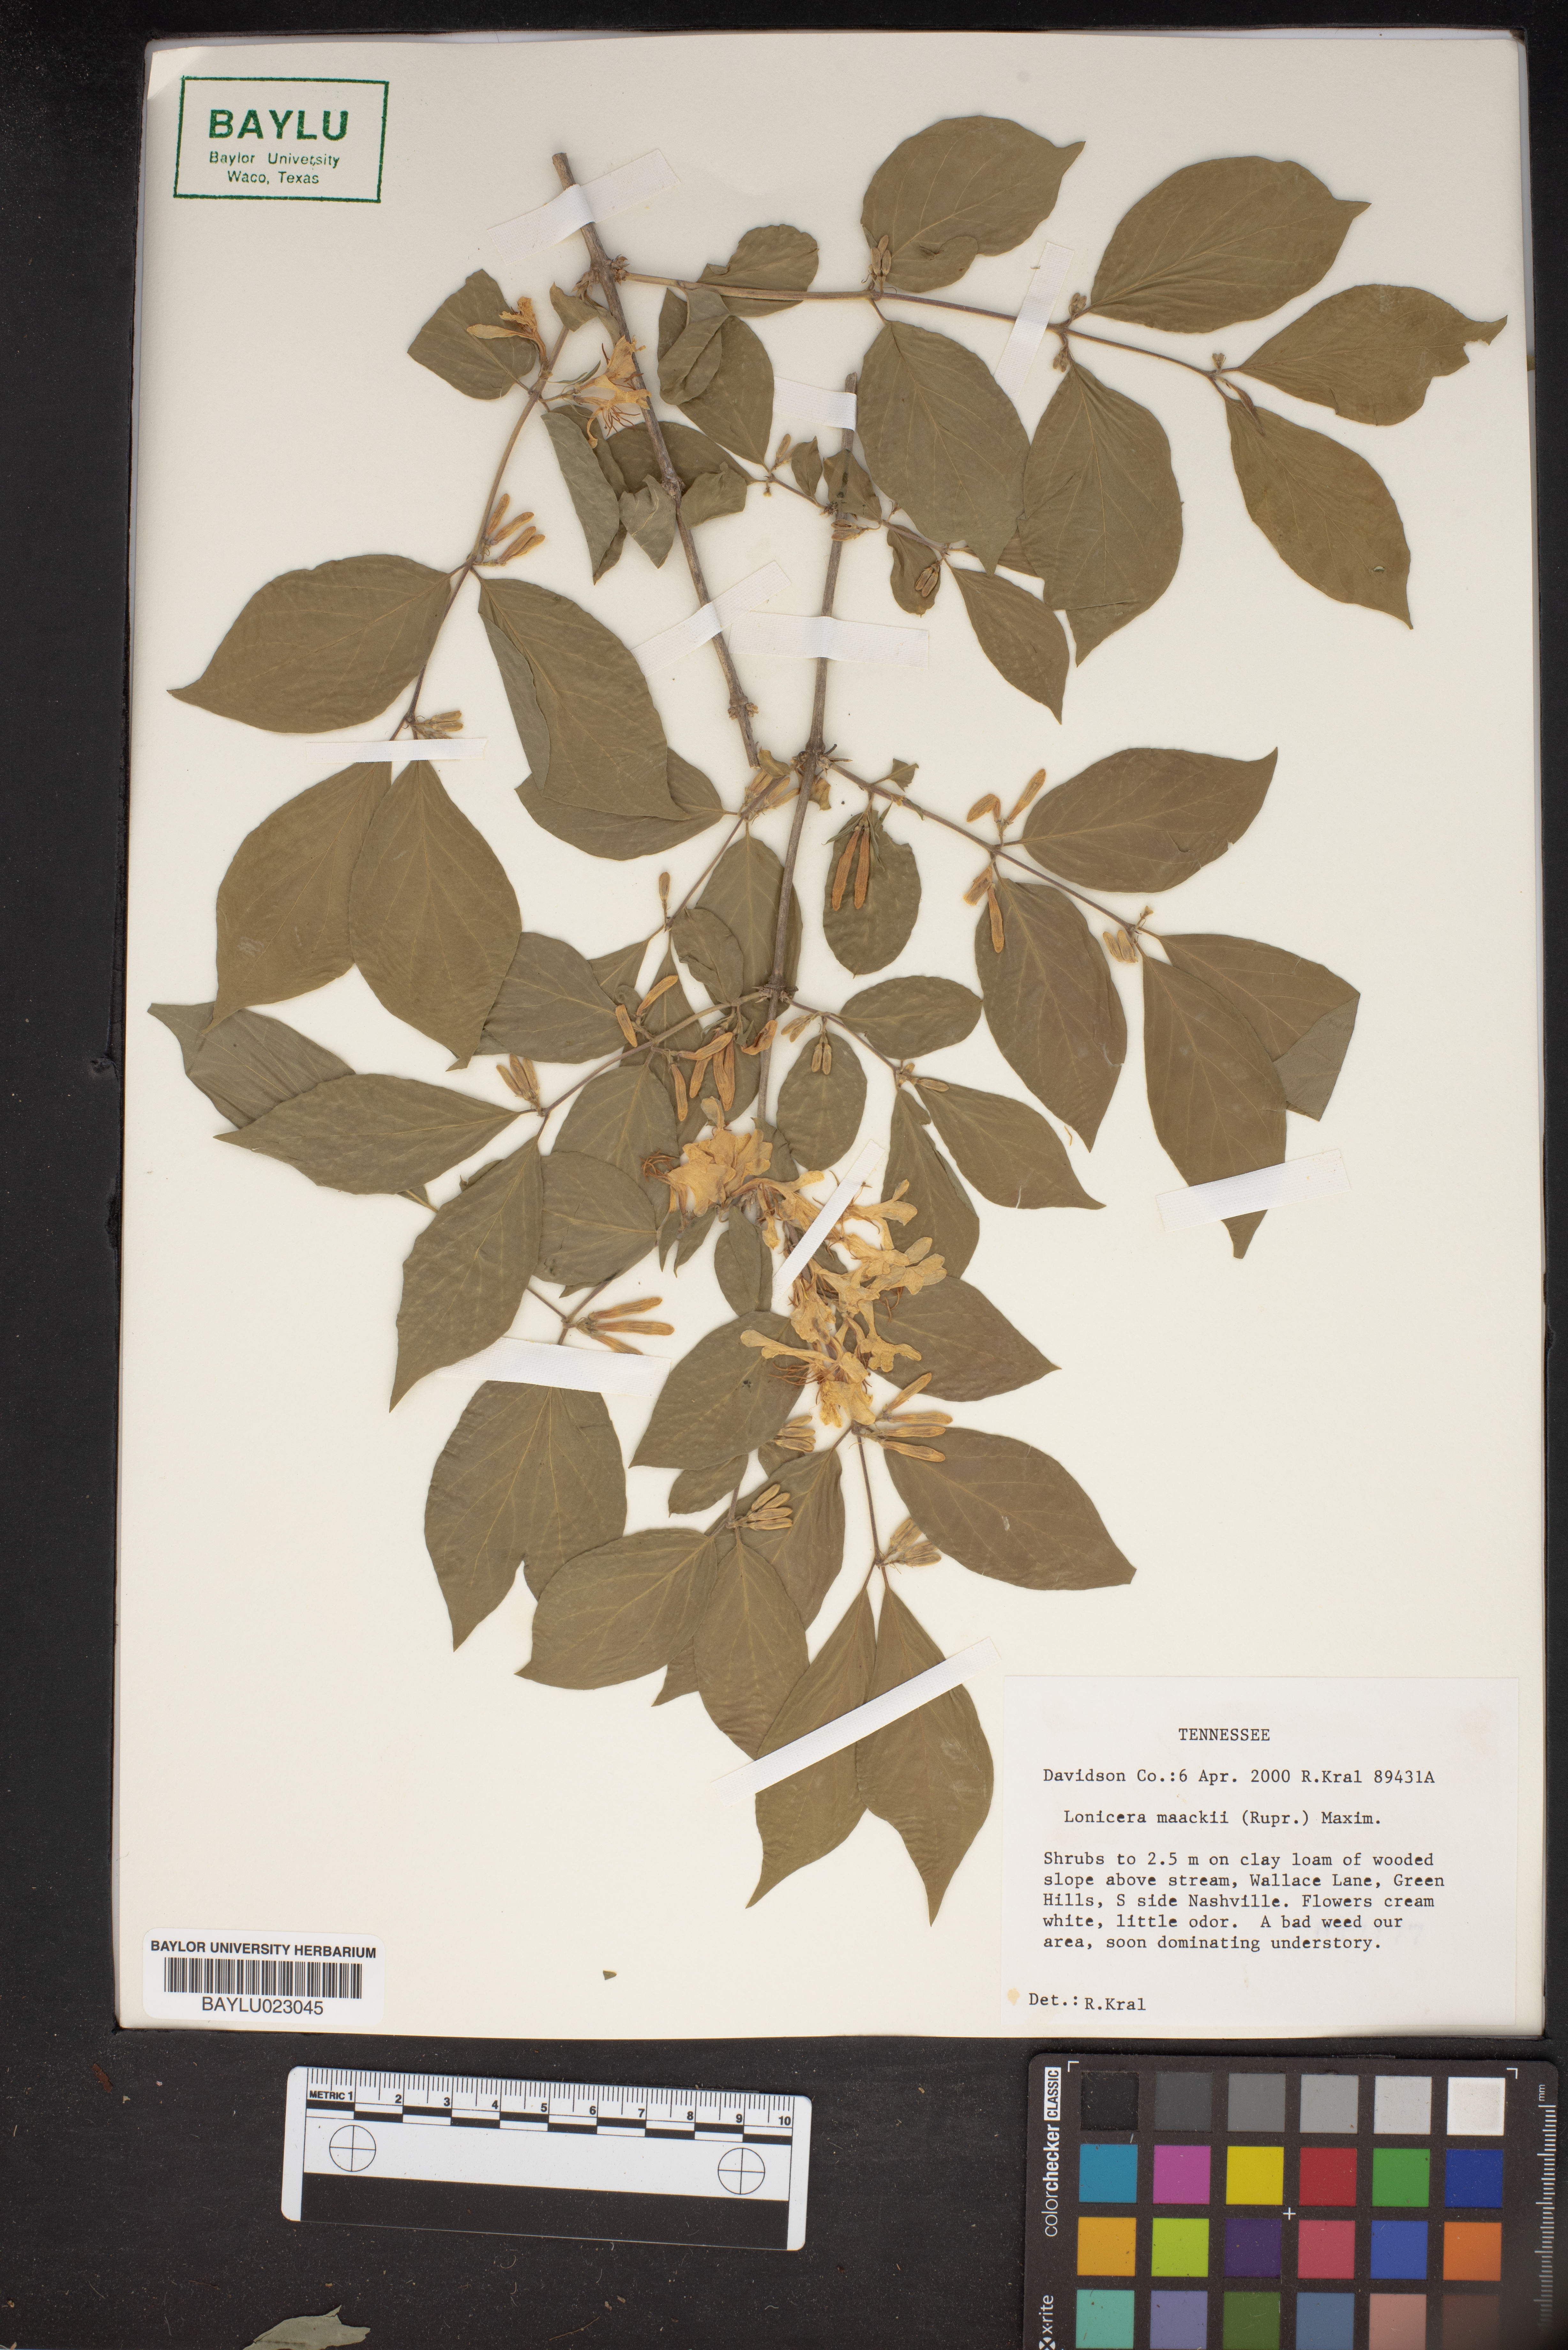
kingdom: Plantae
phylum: Tracheophyta
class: Magnoliopsida
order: Dipsacales
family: Caprifoliaceae
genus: Lonicera
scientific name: Lonicera maackii
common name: Amur honeysuckle
